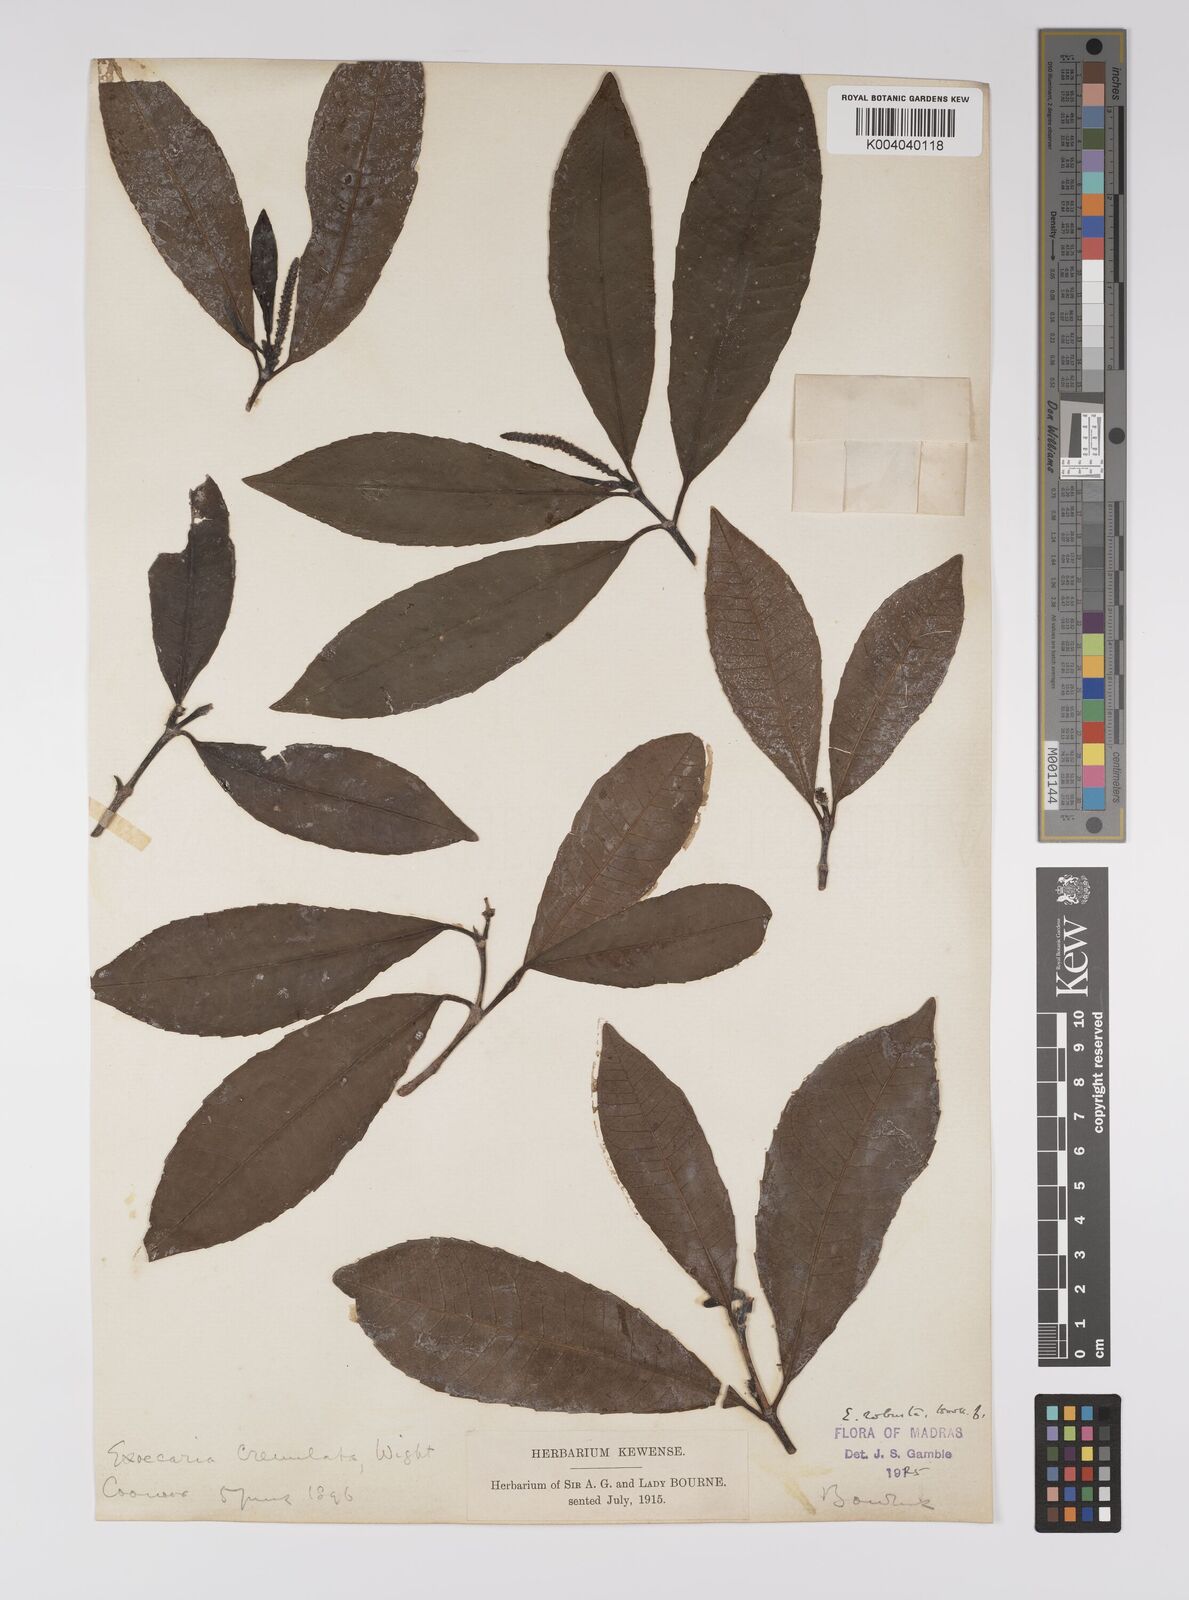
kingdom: Plantae
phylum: Tracheophyta
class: Magnoliopsida
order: Malpighiales
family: Euphorbiaceae
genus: Excoecaria
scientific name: Excoecaria oppositifolia
